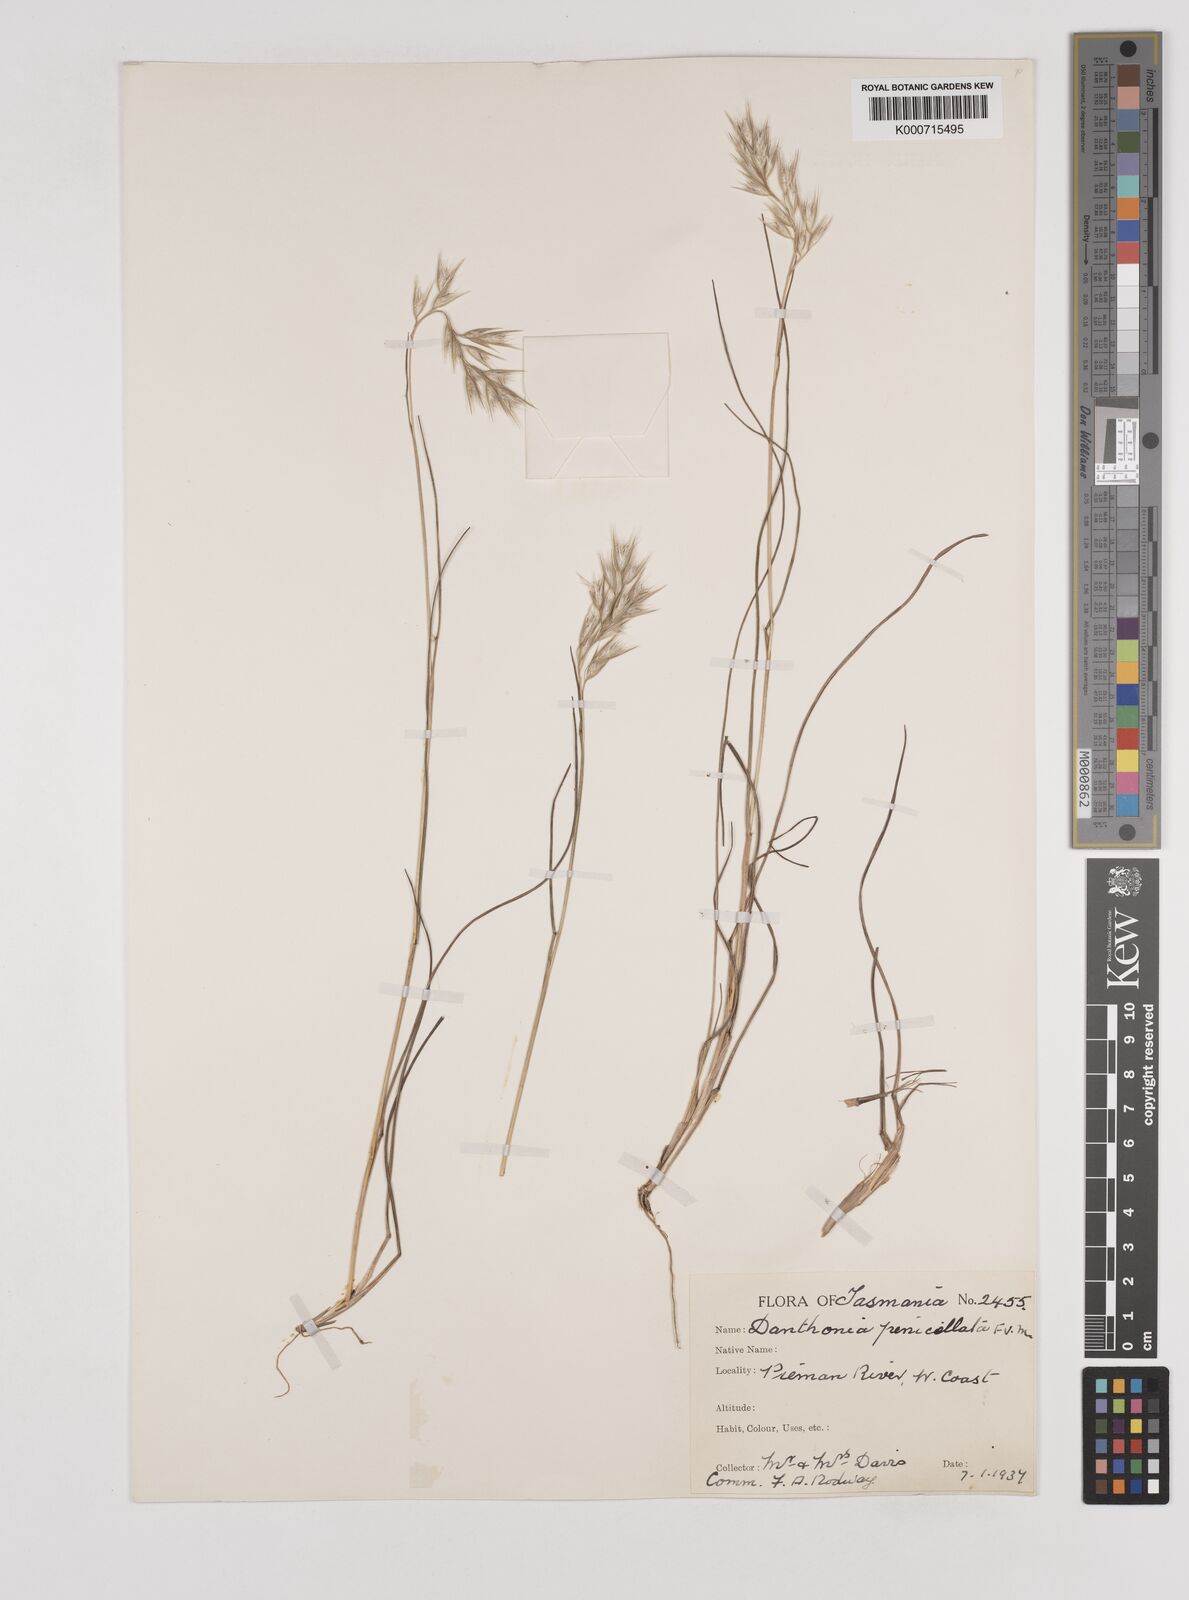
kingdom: Plantae
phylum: Tracheophyta
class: Liliopsida
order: Poales
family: Poaceae
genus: Rytidosperma
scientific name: Rytidosperma tenuius
